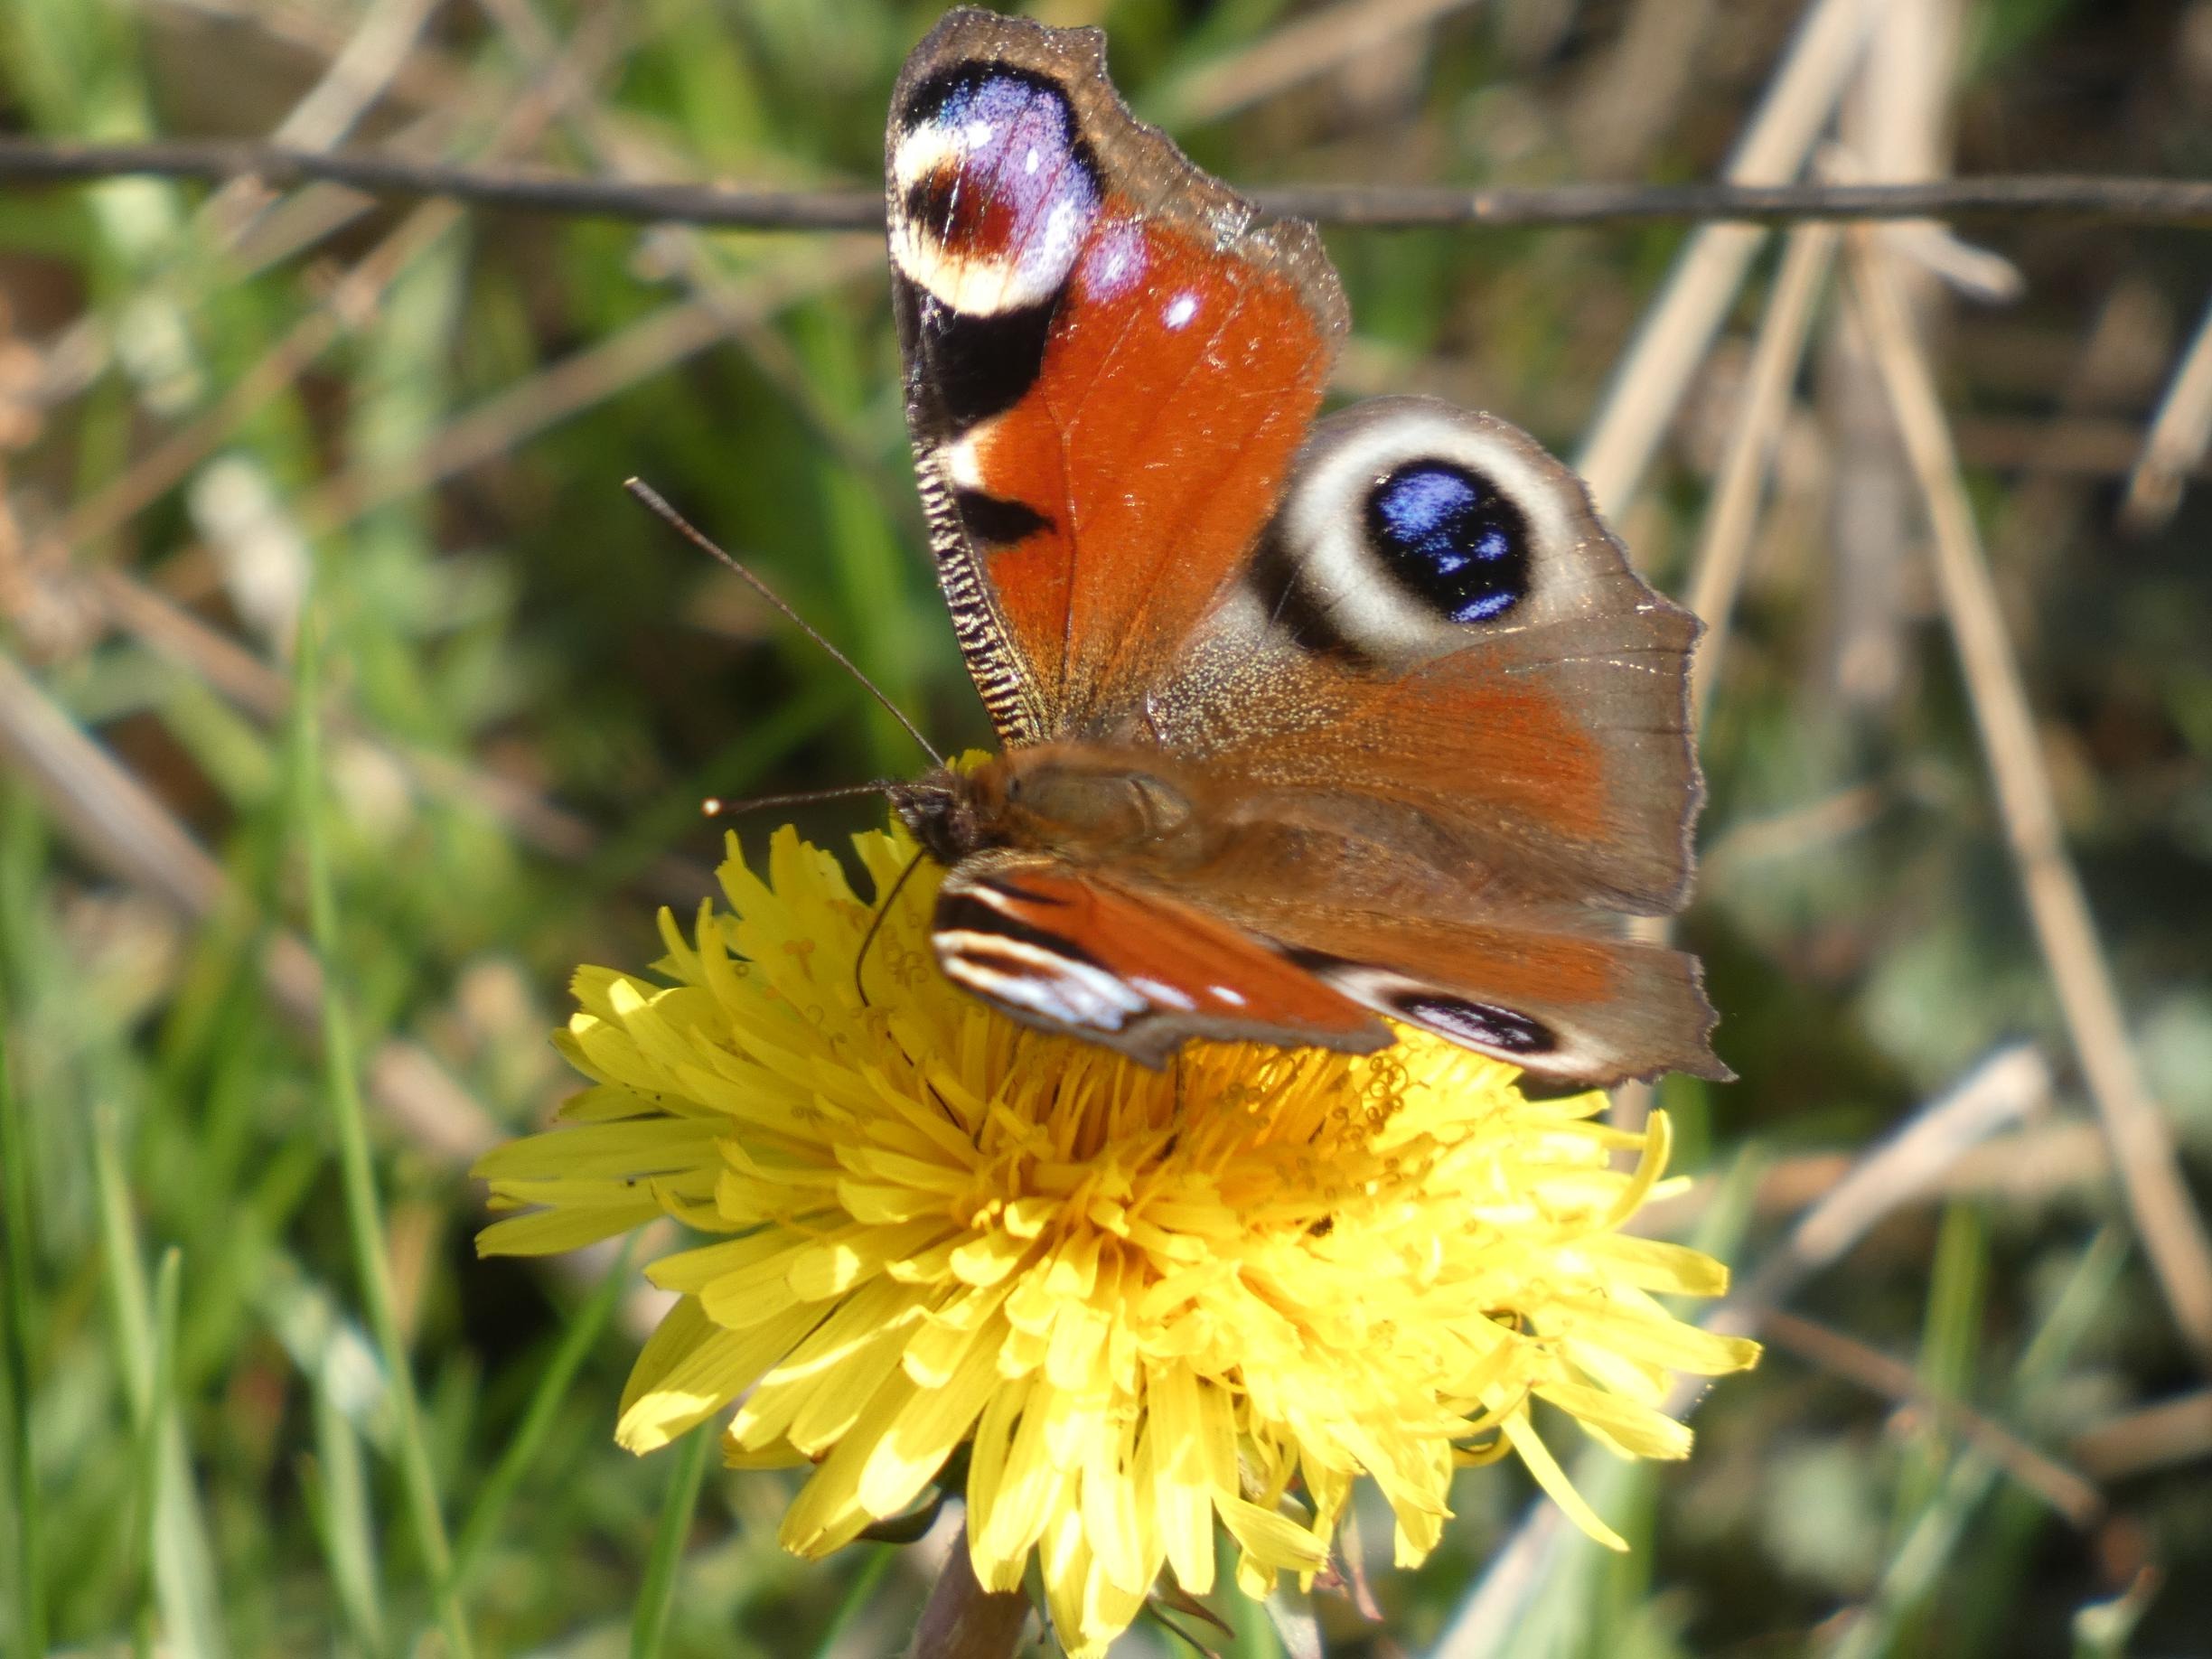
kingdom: Animalia
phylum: Arthropoda
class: Insecta
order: Lepidoptera
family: Nymphalidae
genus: Aglais
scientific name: Aglais io
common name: Dagpåfugleøje
